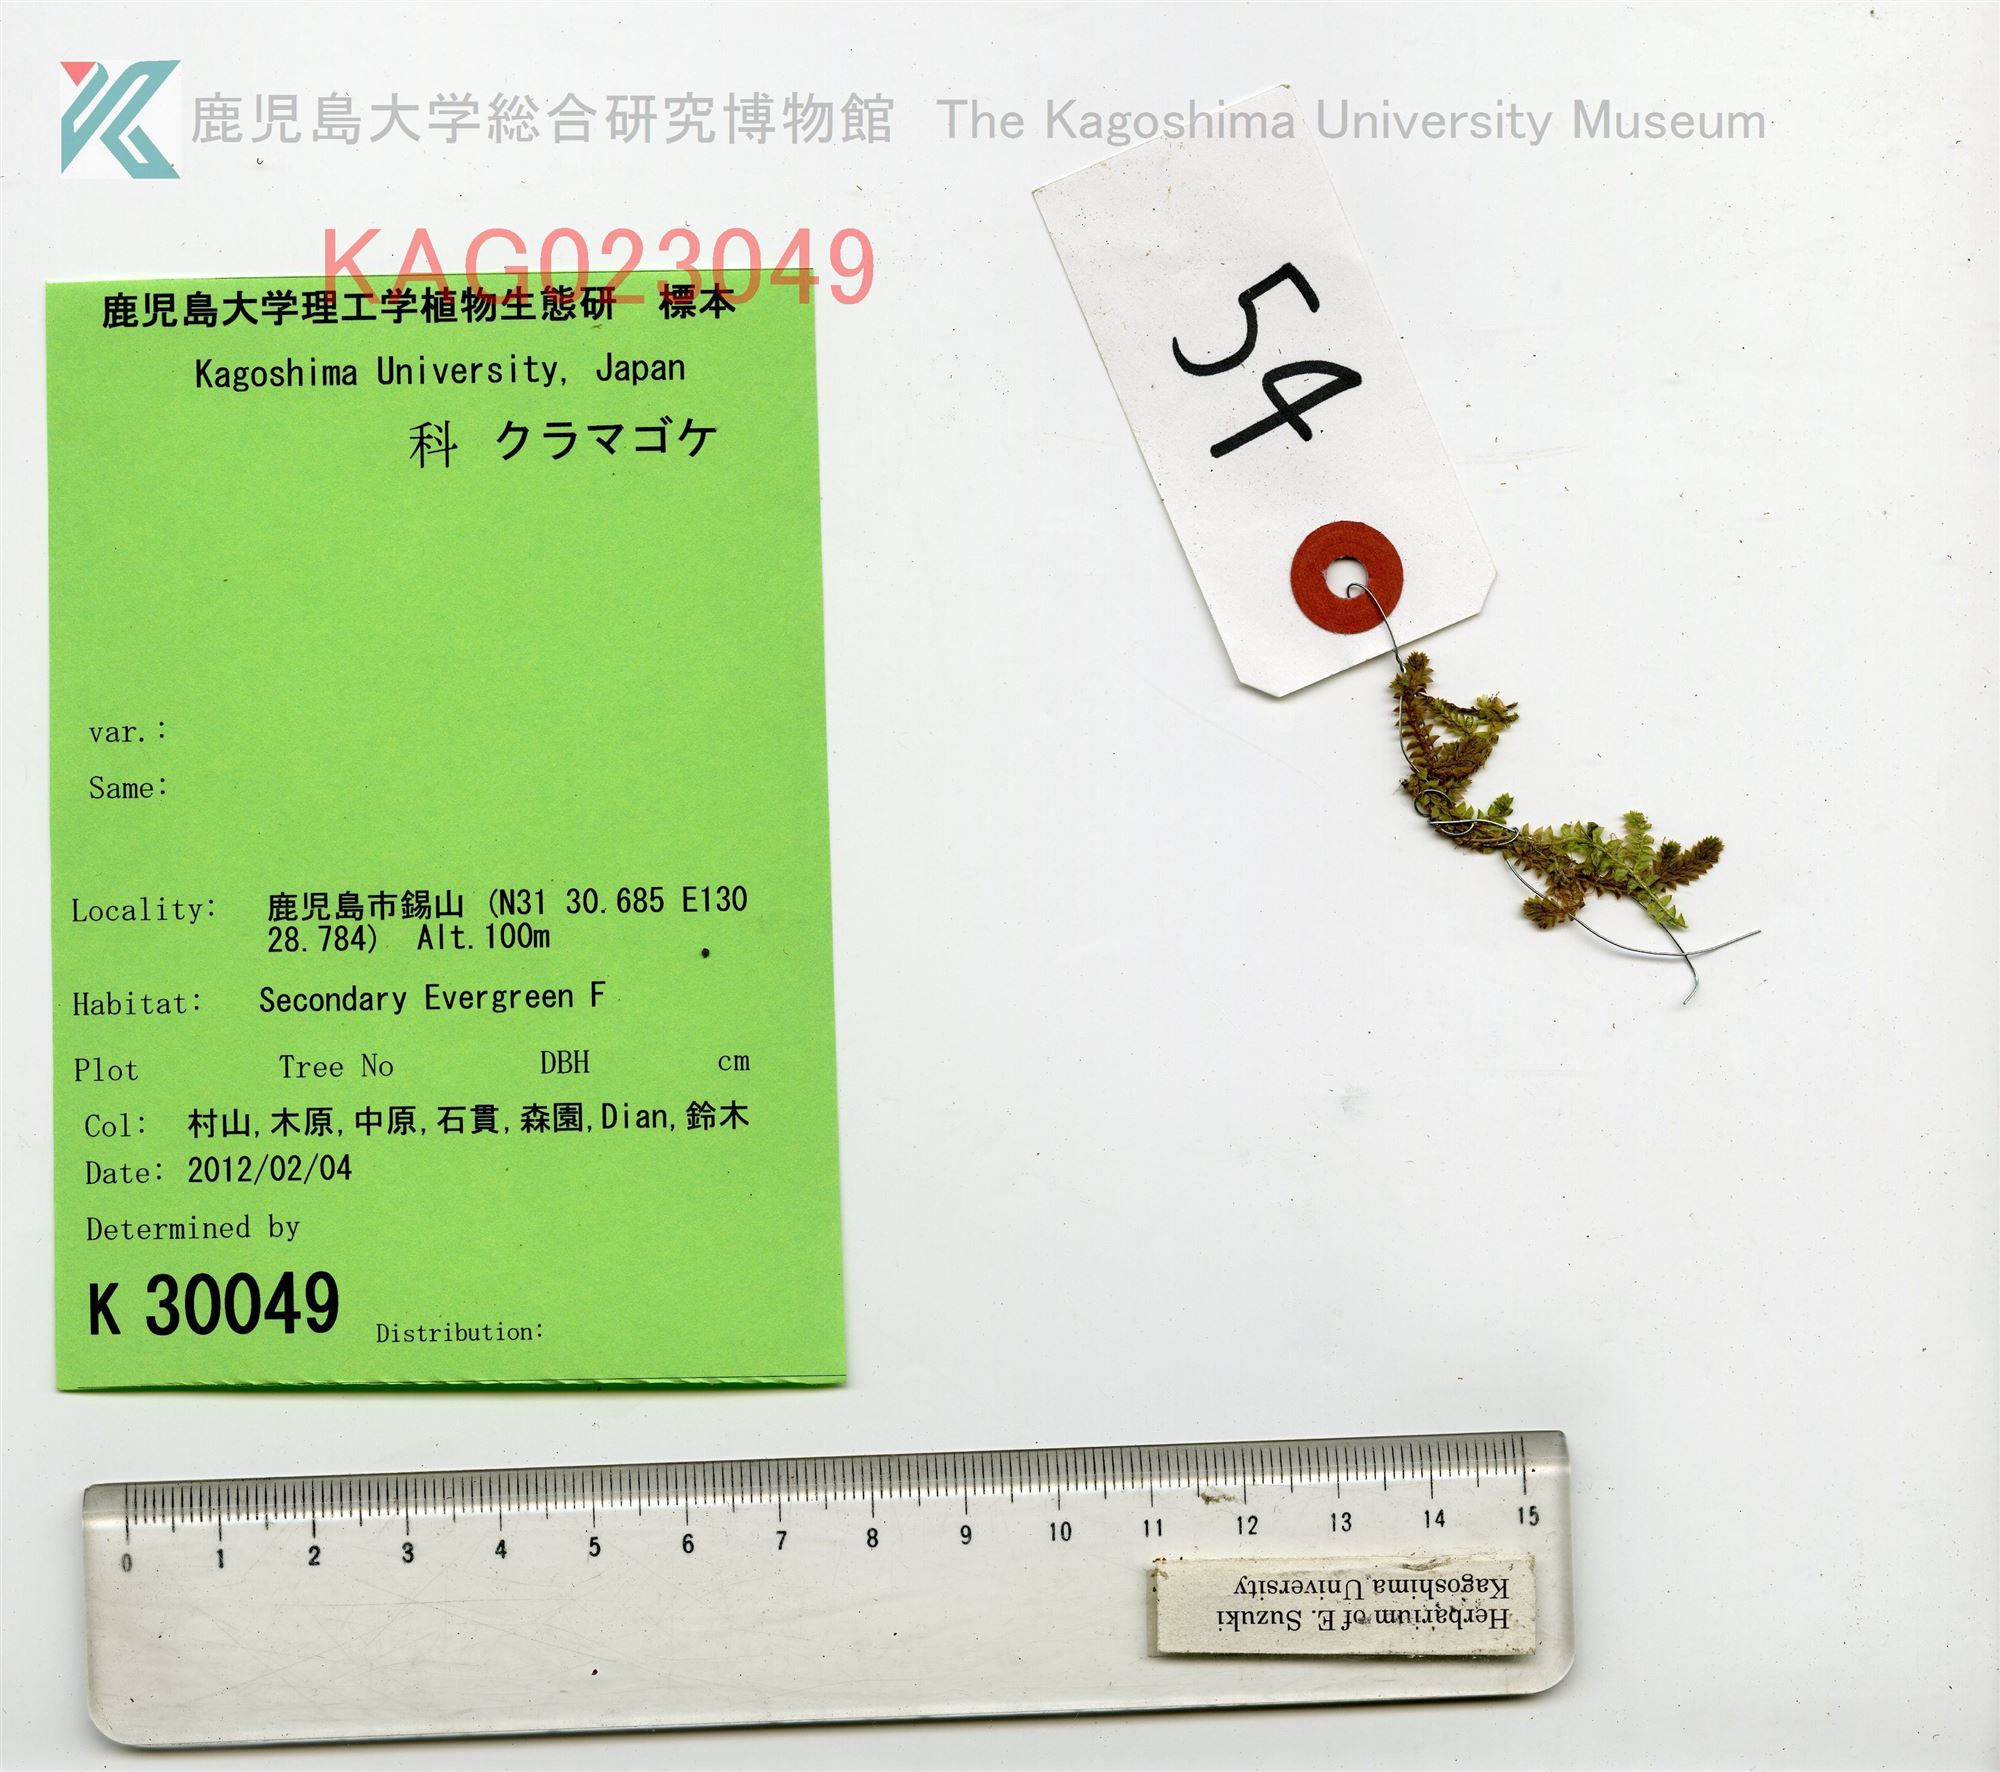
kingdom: Plantae
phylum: Tracheophyta
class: Lycopodiopsida
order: Selaginellales
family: Selaginellaceae
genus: Selaginella
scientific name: Selaginella remotifolia
